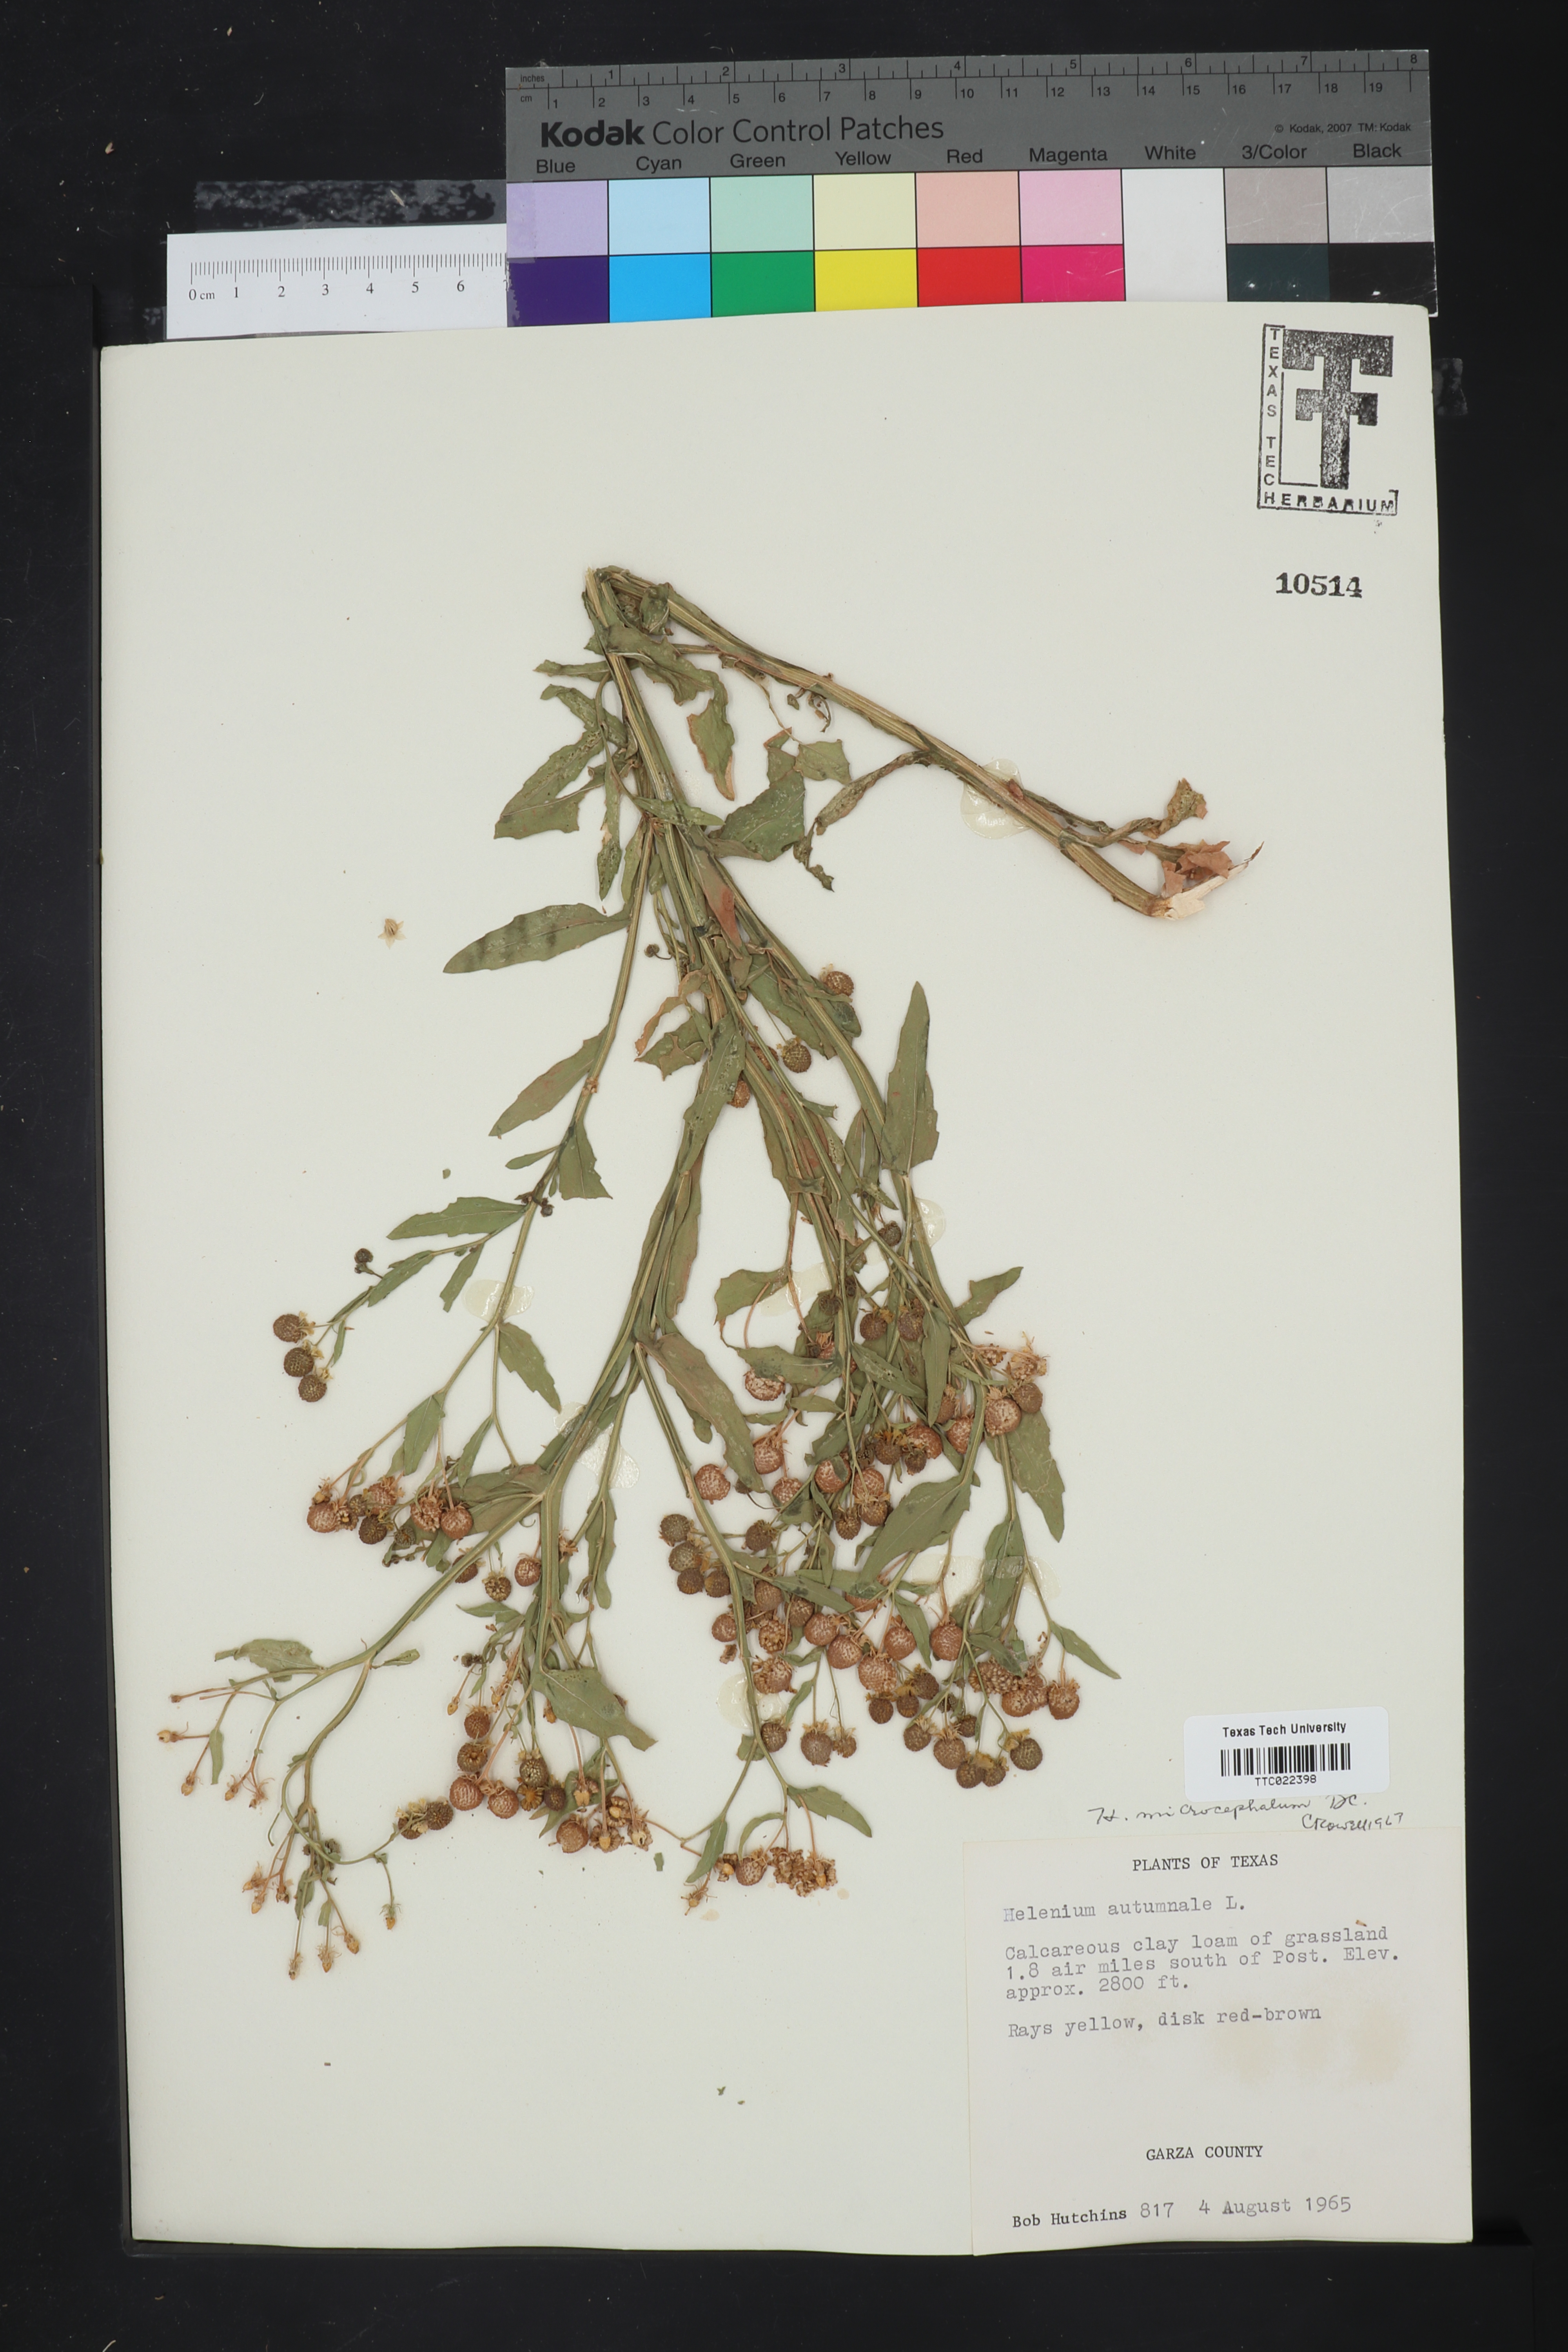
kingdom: Plantae
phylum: Tracheophyta
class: Magnoliopsida
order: Asterales
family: Asteraceae
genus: Helenium
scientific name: Helenium autumnale
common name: Sneezeweed
